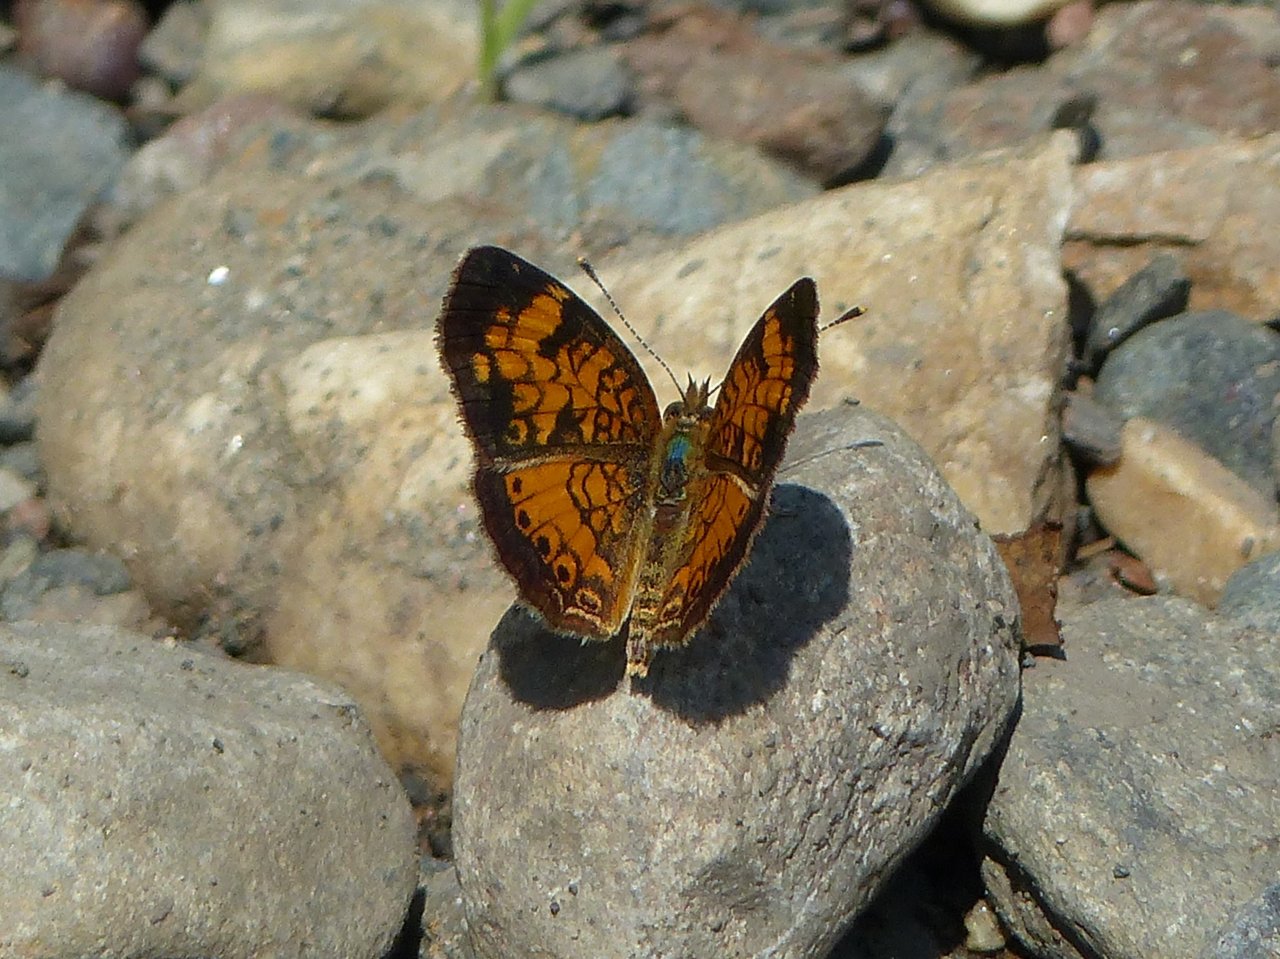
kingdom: Animalia
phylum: Arthropoda
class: Insecta
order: Lepidoptera
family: Nymphalidae
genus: Phyciodes
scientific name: Phyciodes tharos
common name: Northern Crescent
